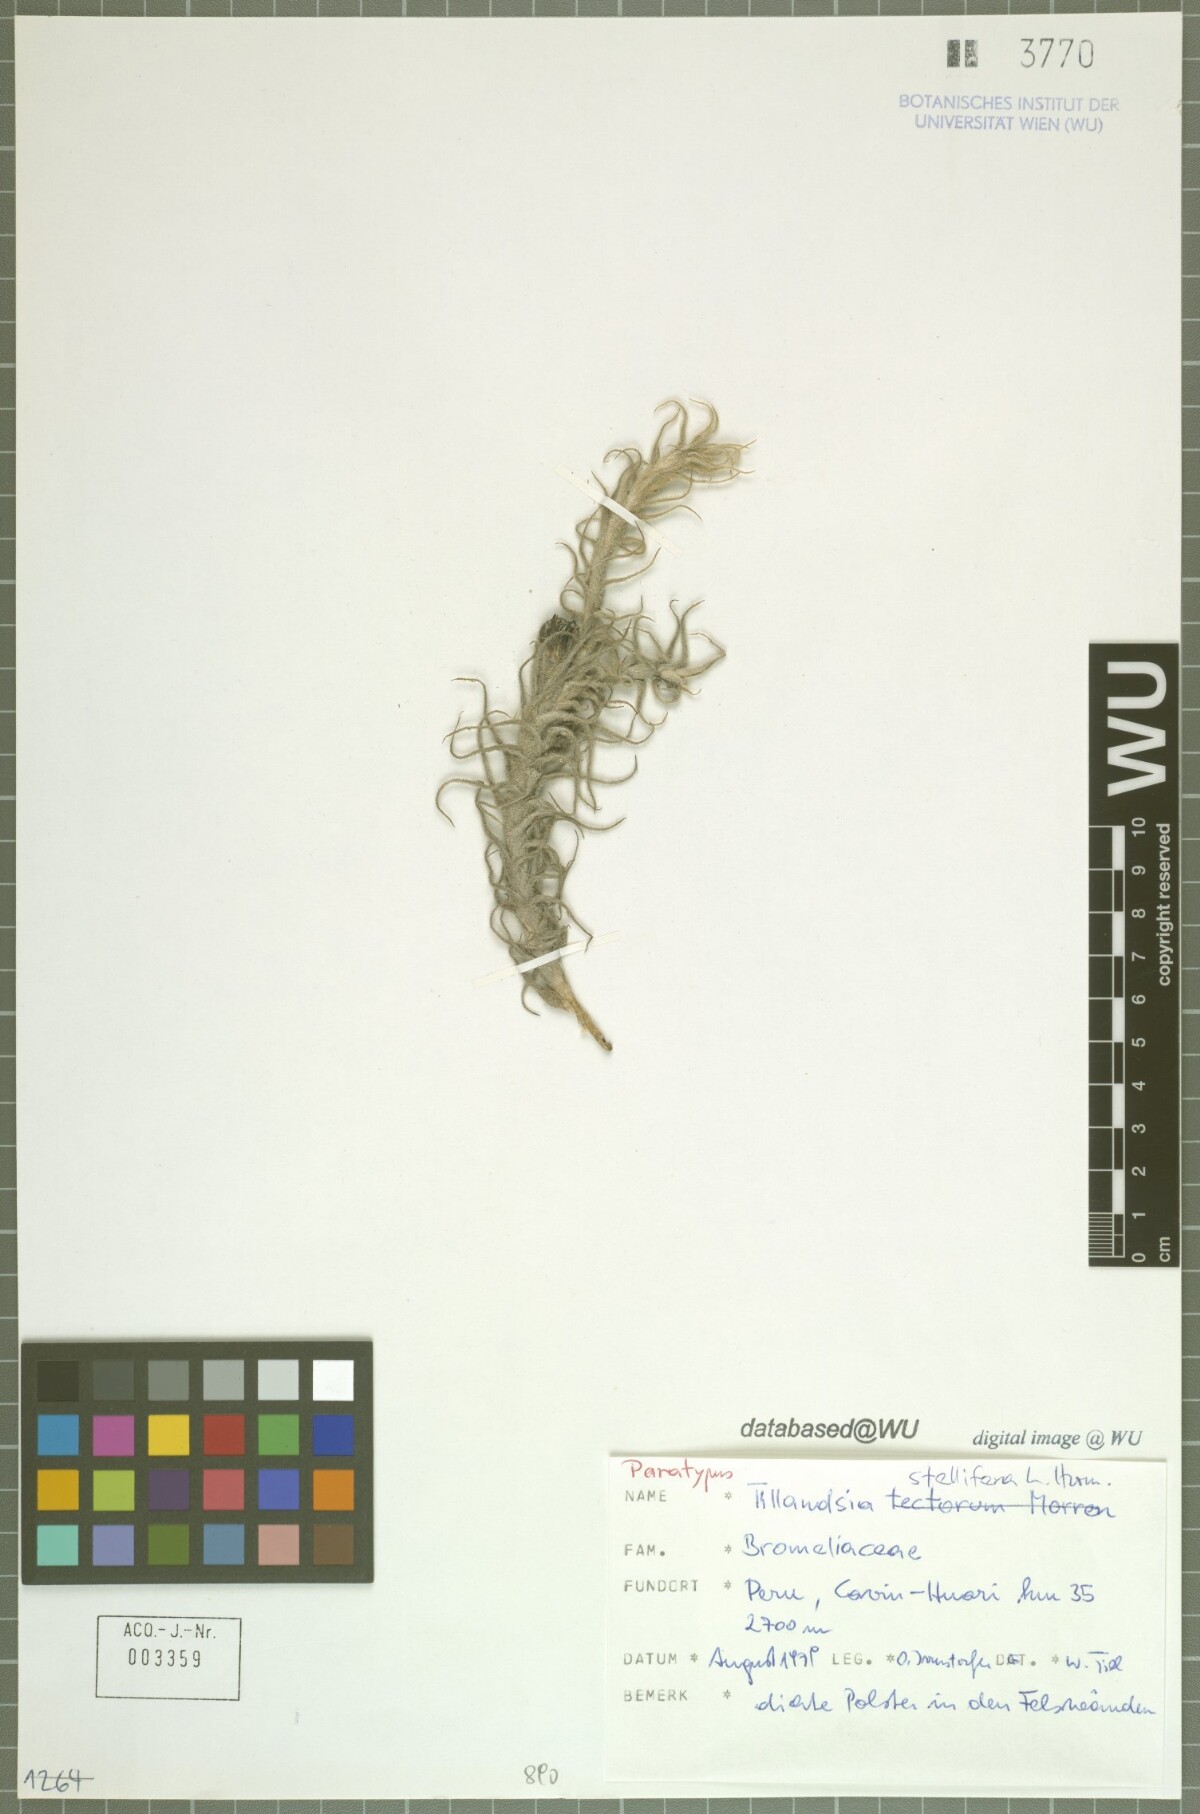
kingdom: Plantae
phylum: Tracheophyta
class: Liliopsida
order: Poales
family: Bromeliaceae
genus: Tillandsia
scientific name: Tillandsia stellifera
